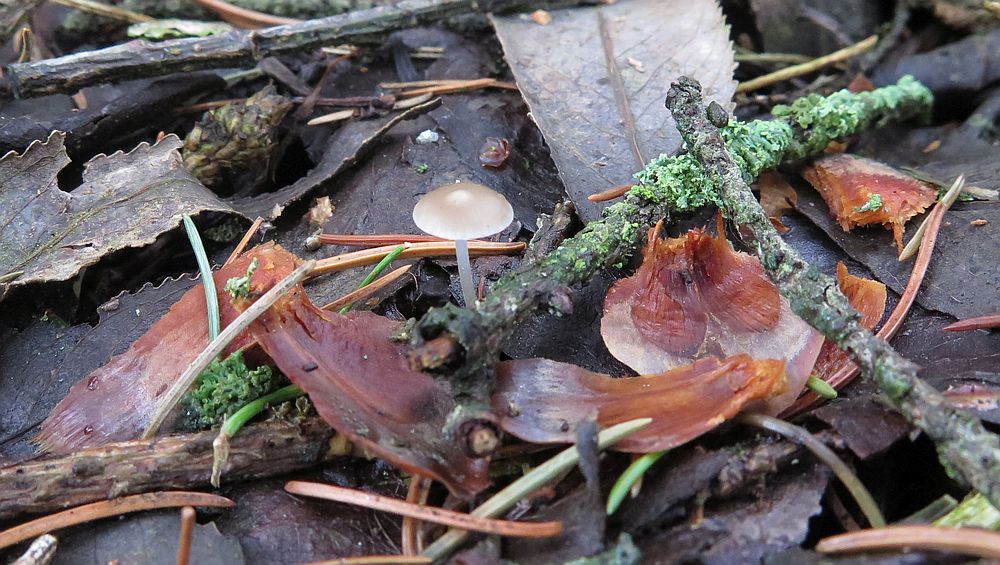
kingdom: Fungi
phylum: Basidiomycota
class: Agaricomycetes
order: Agaricales
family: Physalacriaceae
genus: Strobilurus
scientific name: Strobilurus esculentus
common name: gran-koglehat
